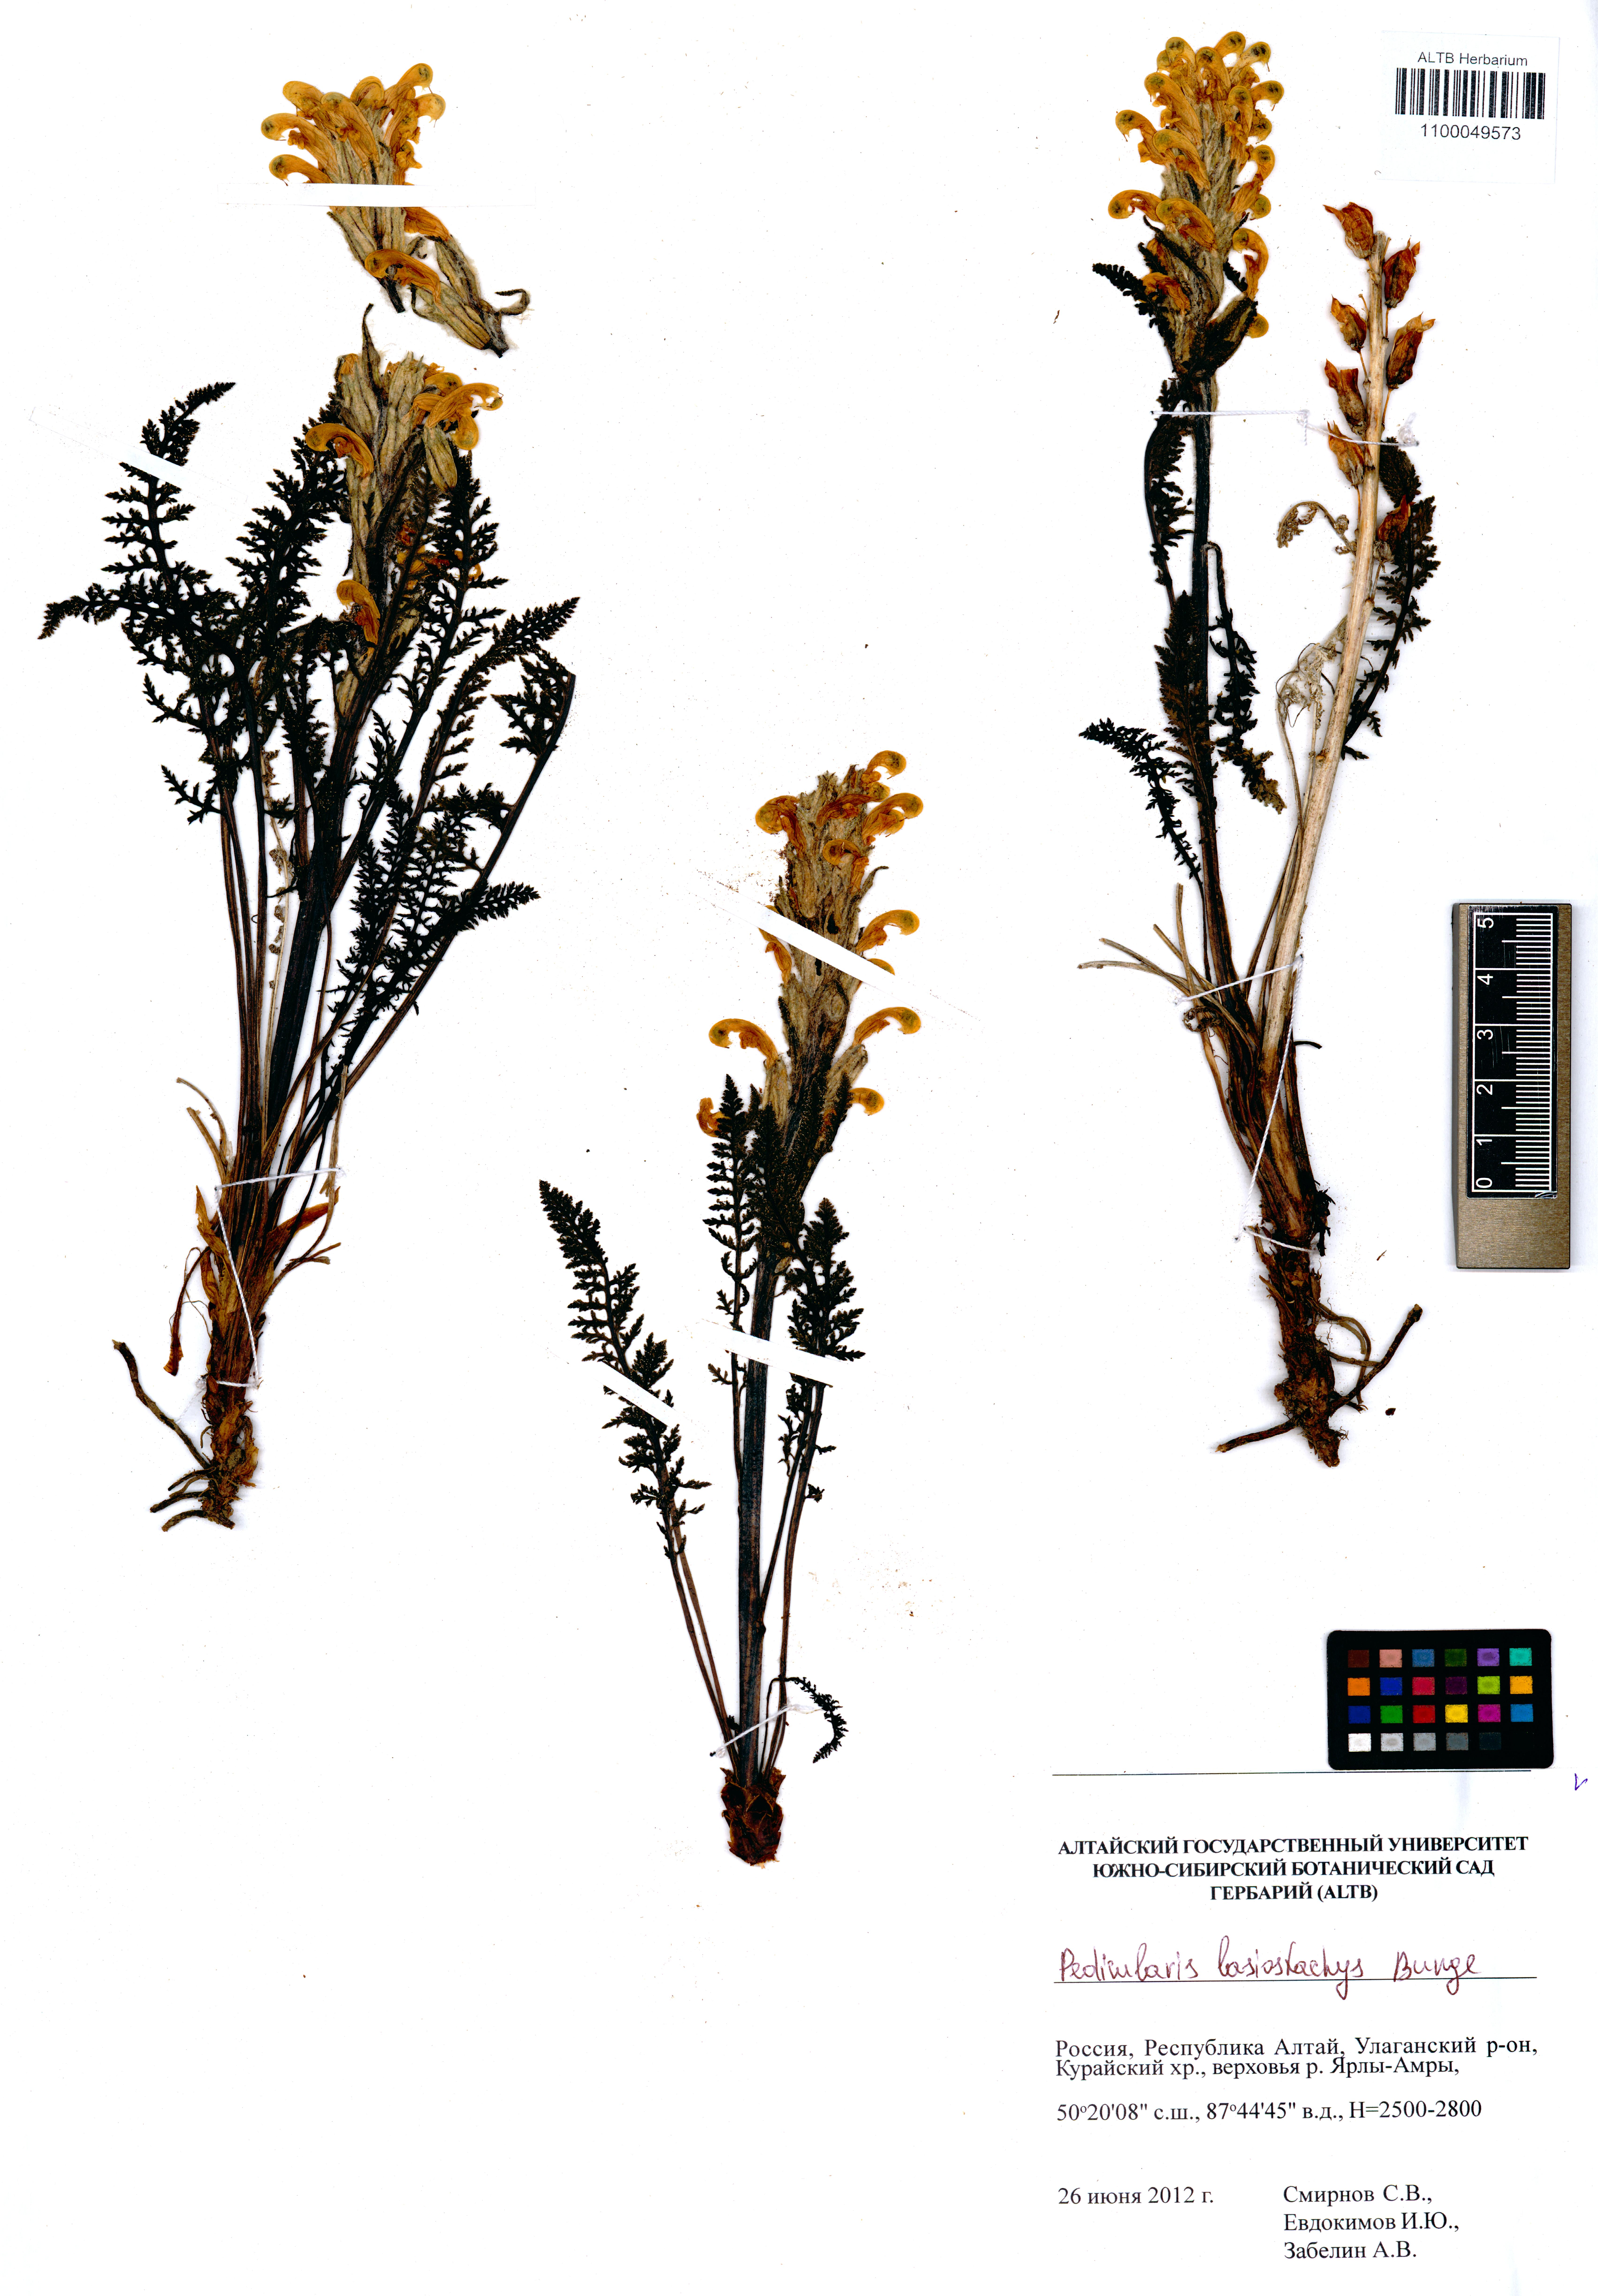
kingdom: Plantae
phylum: Tracheophyta
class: Magnoliopsida
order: Lamiales
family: Orobanchaceae
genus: Pedicularis
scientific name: Pedicularis lasiostachys
